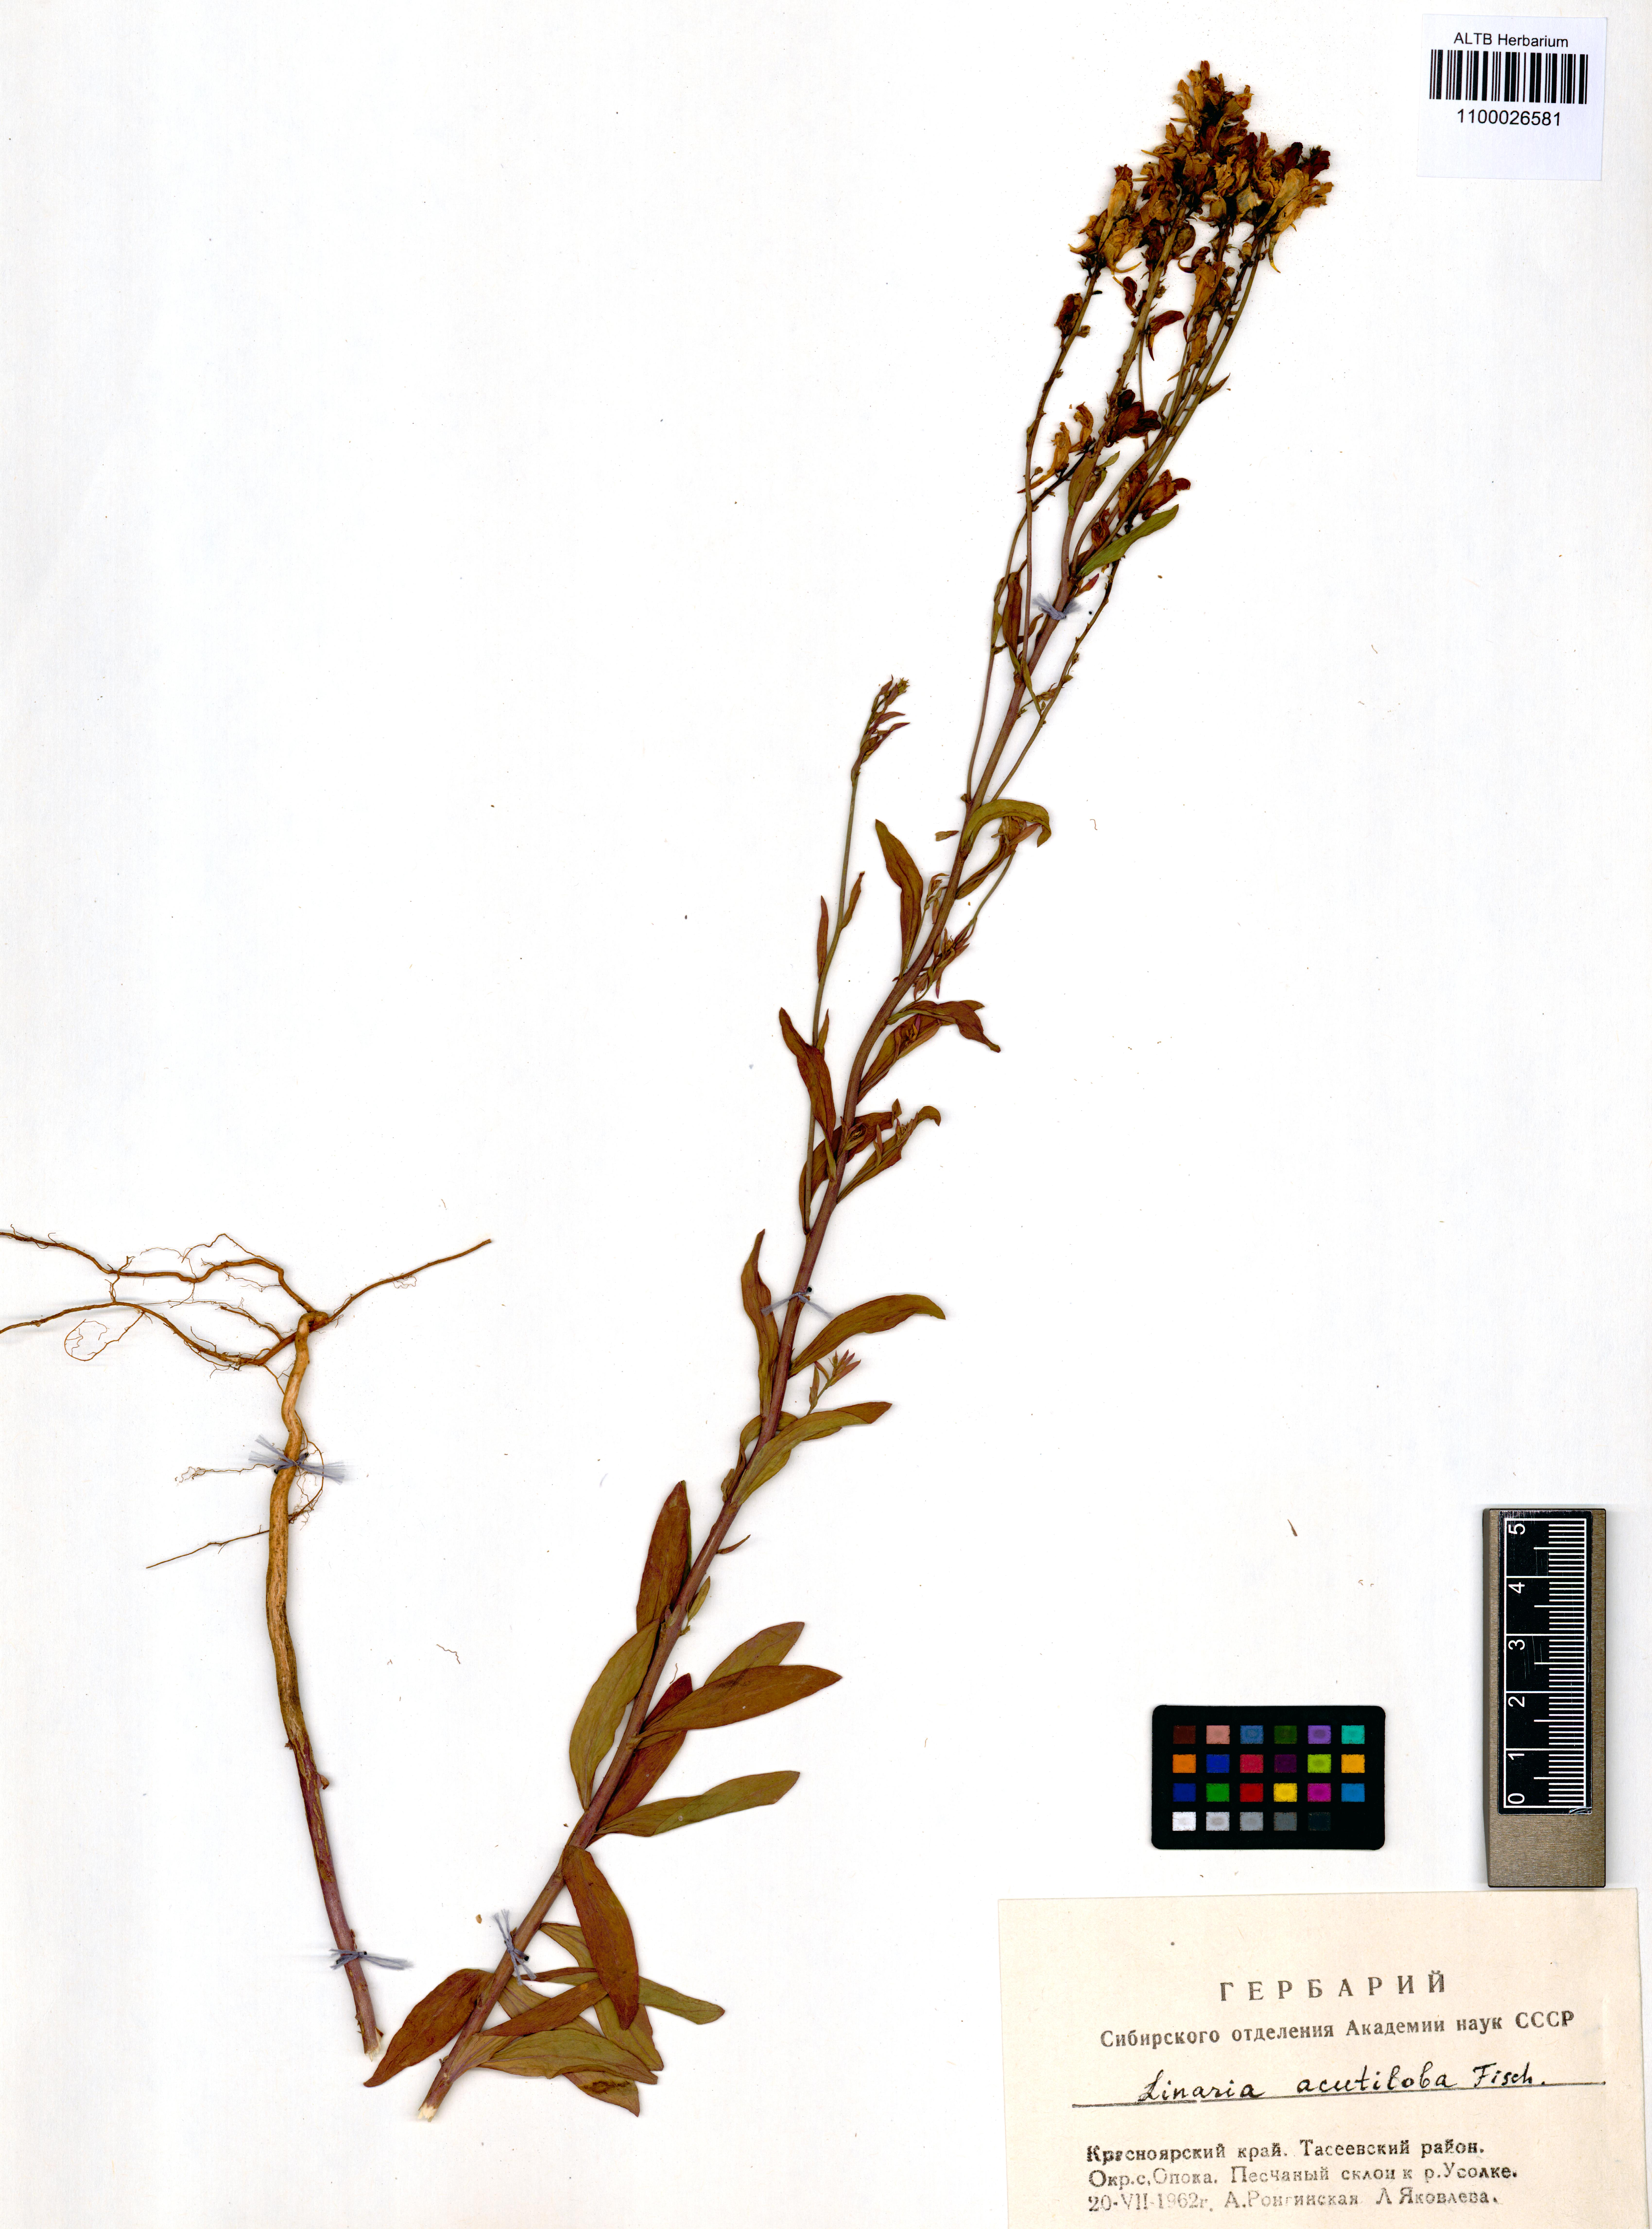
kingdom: Plantae
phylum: Tracheophyta
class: Magnoliopsida
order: Lamiales
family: Plantaginaceae
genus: Linaria
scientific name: Linaria acutiloba
